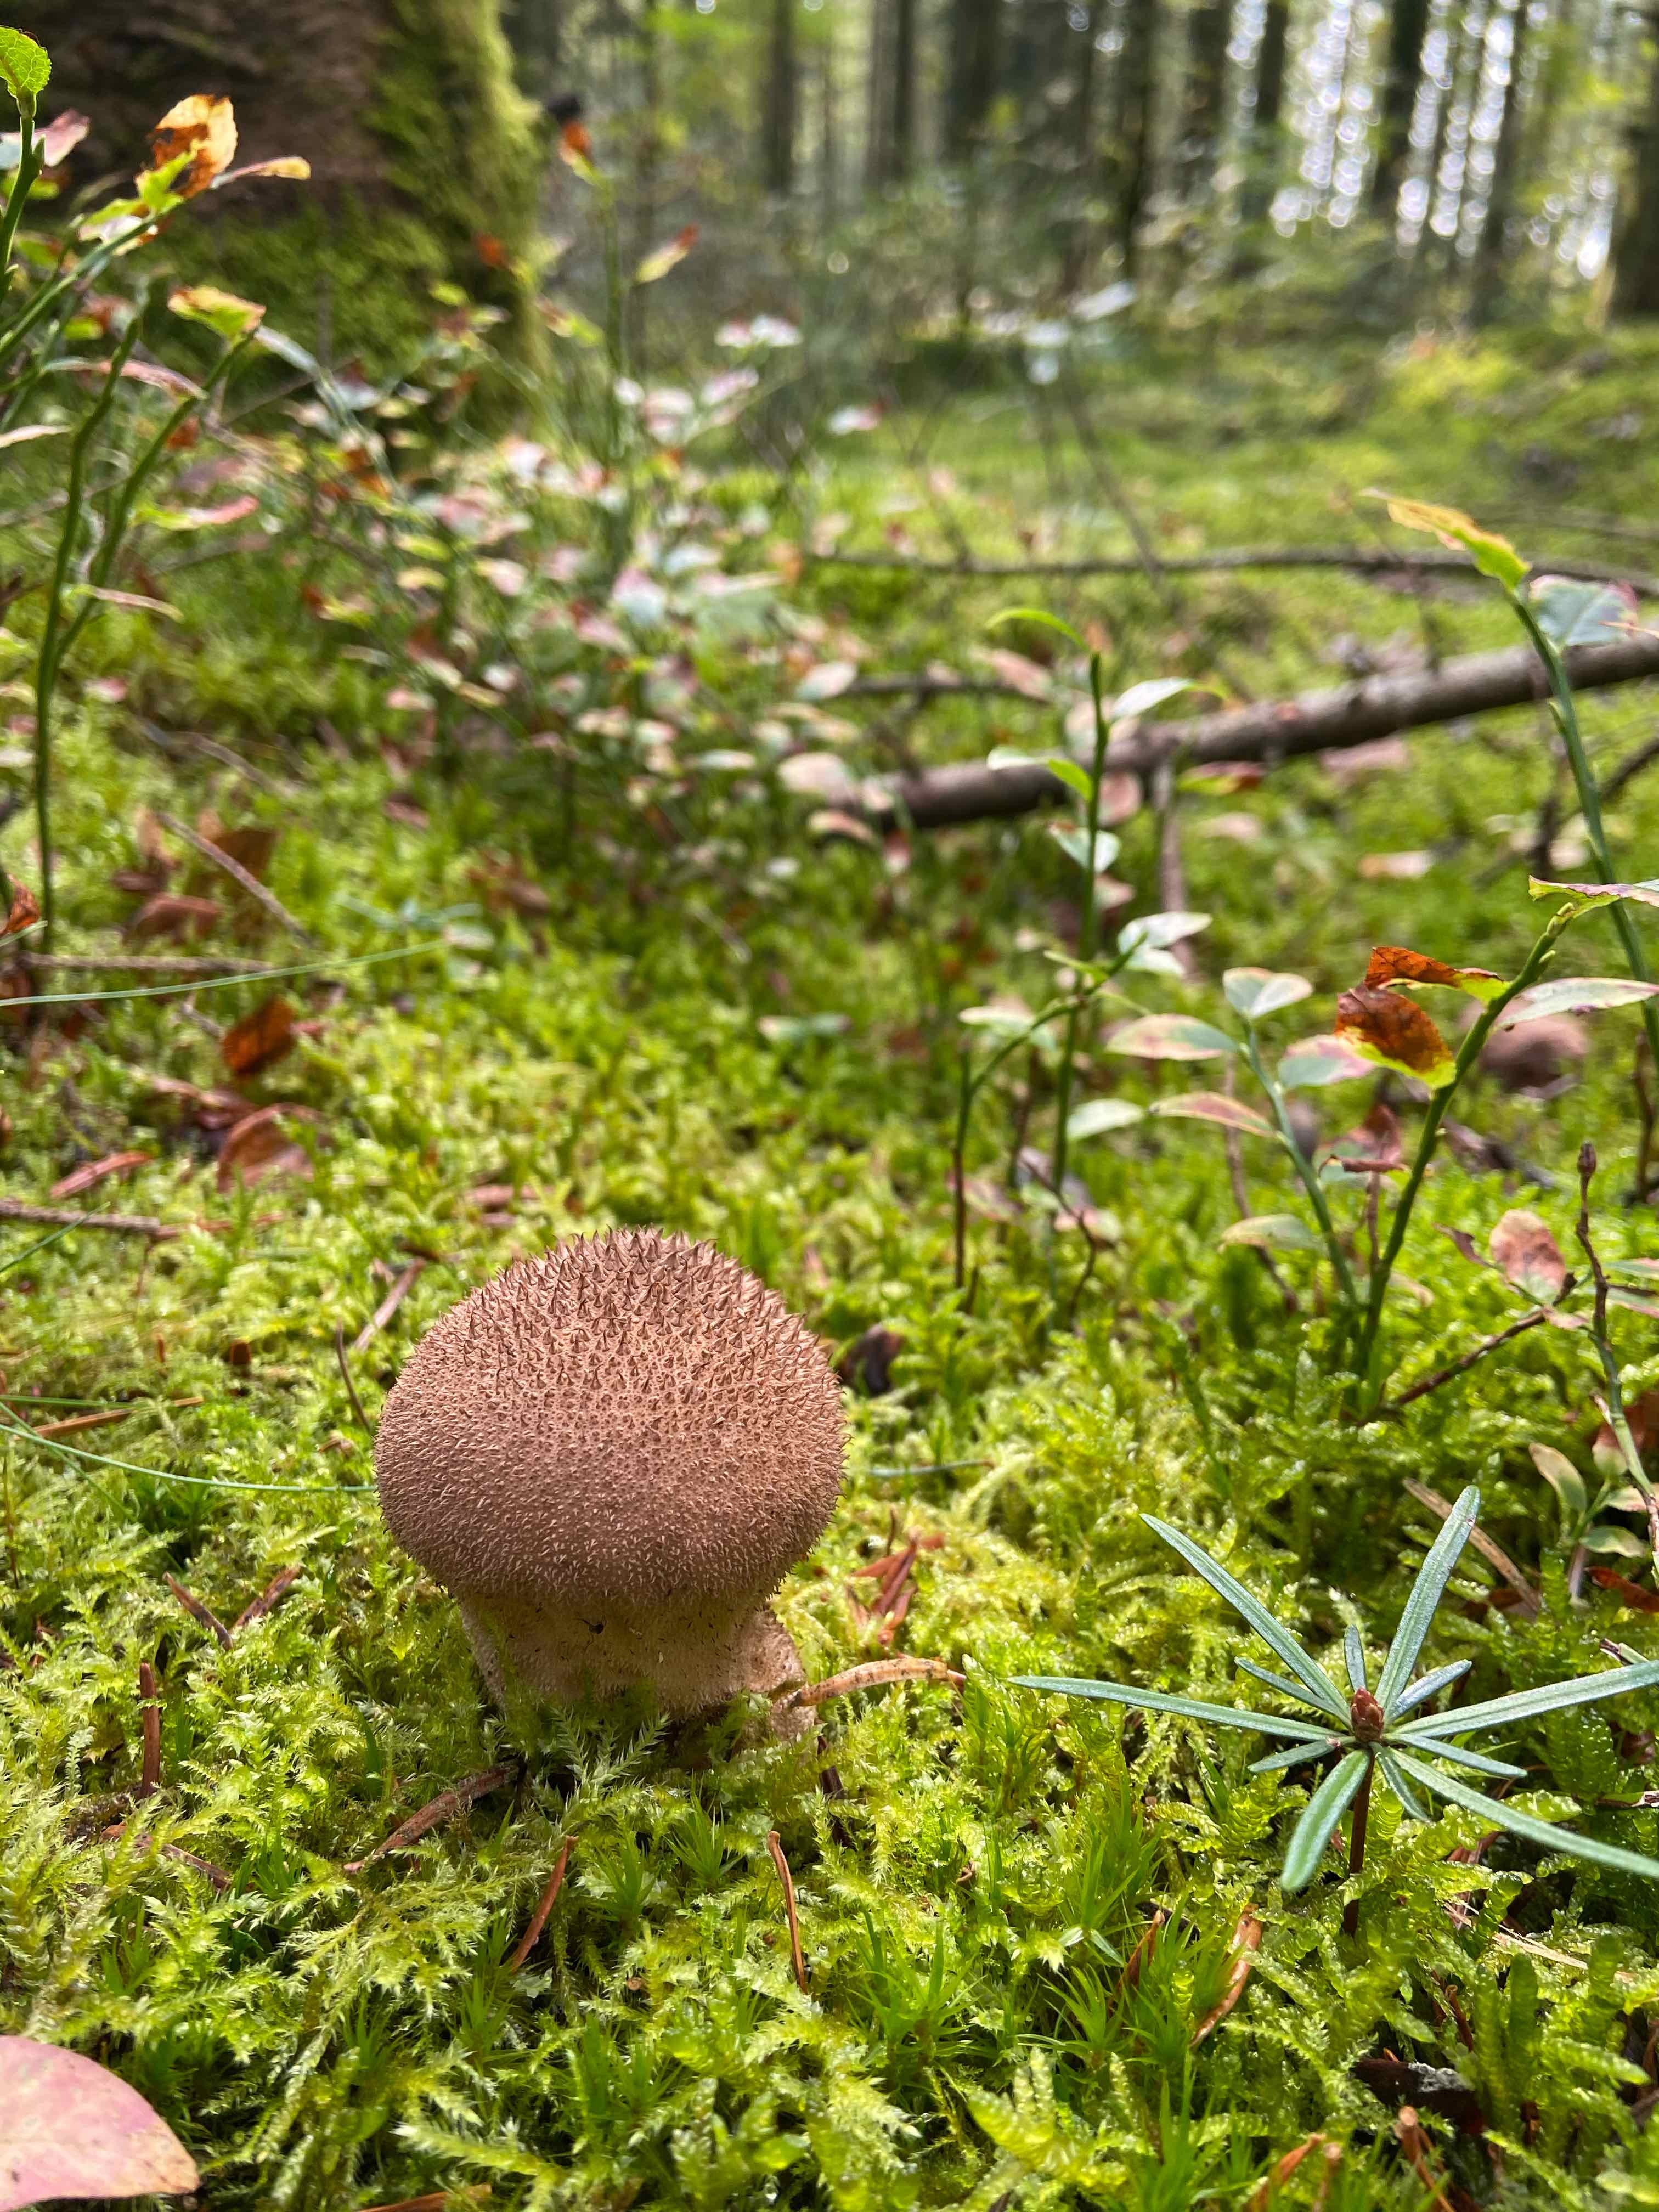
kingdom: Fungi
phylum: Basidiomycota
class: Agaricomycetes
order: Agaricales
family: Lycoperdaceae
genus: Lycoperdon
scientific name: Lycoperdon nigrescens
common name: sortagtig støvbold
